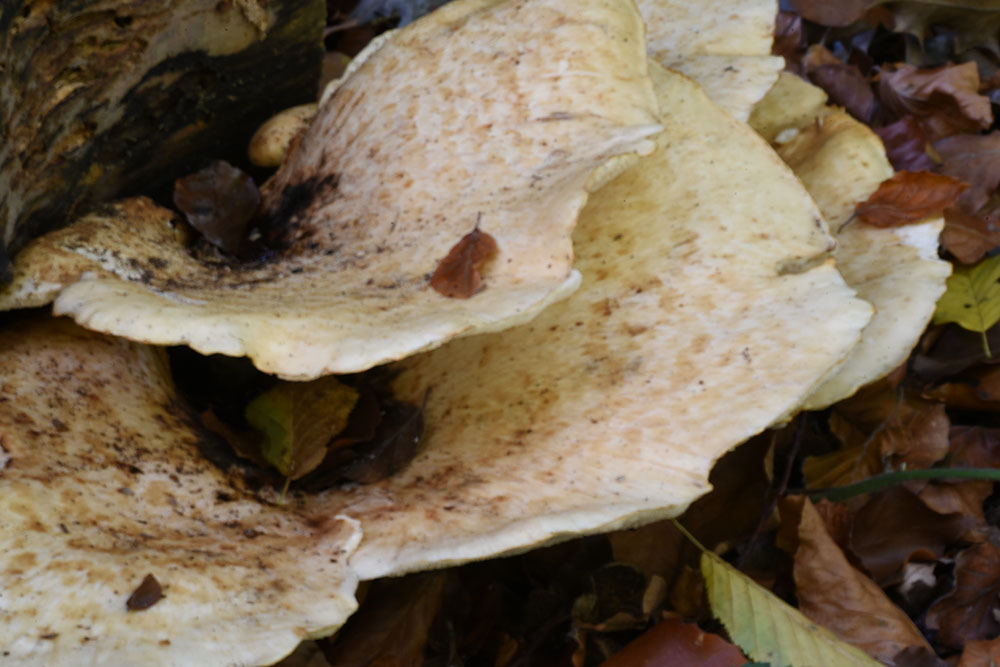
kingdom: Fungi
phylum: Basidiomycota
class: Agaricomycetes
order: Polyporales
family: Polyporaceae
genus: Cerioporus
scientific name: Cerioporus squamosus
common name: Dryad's saddle
